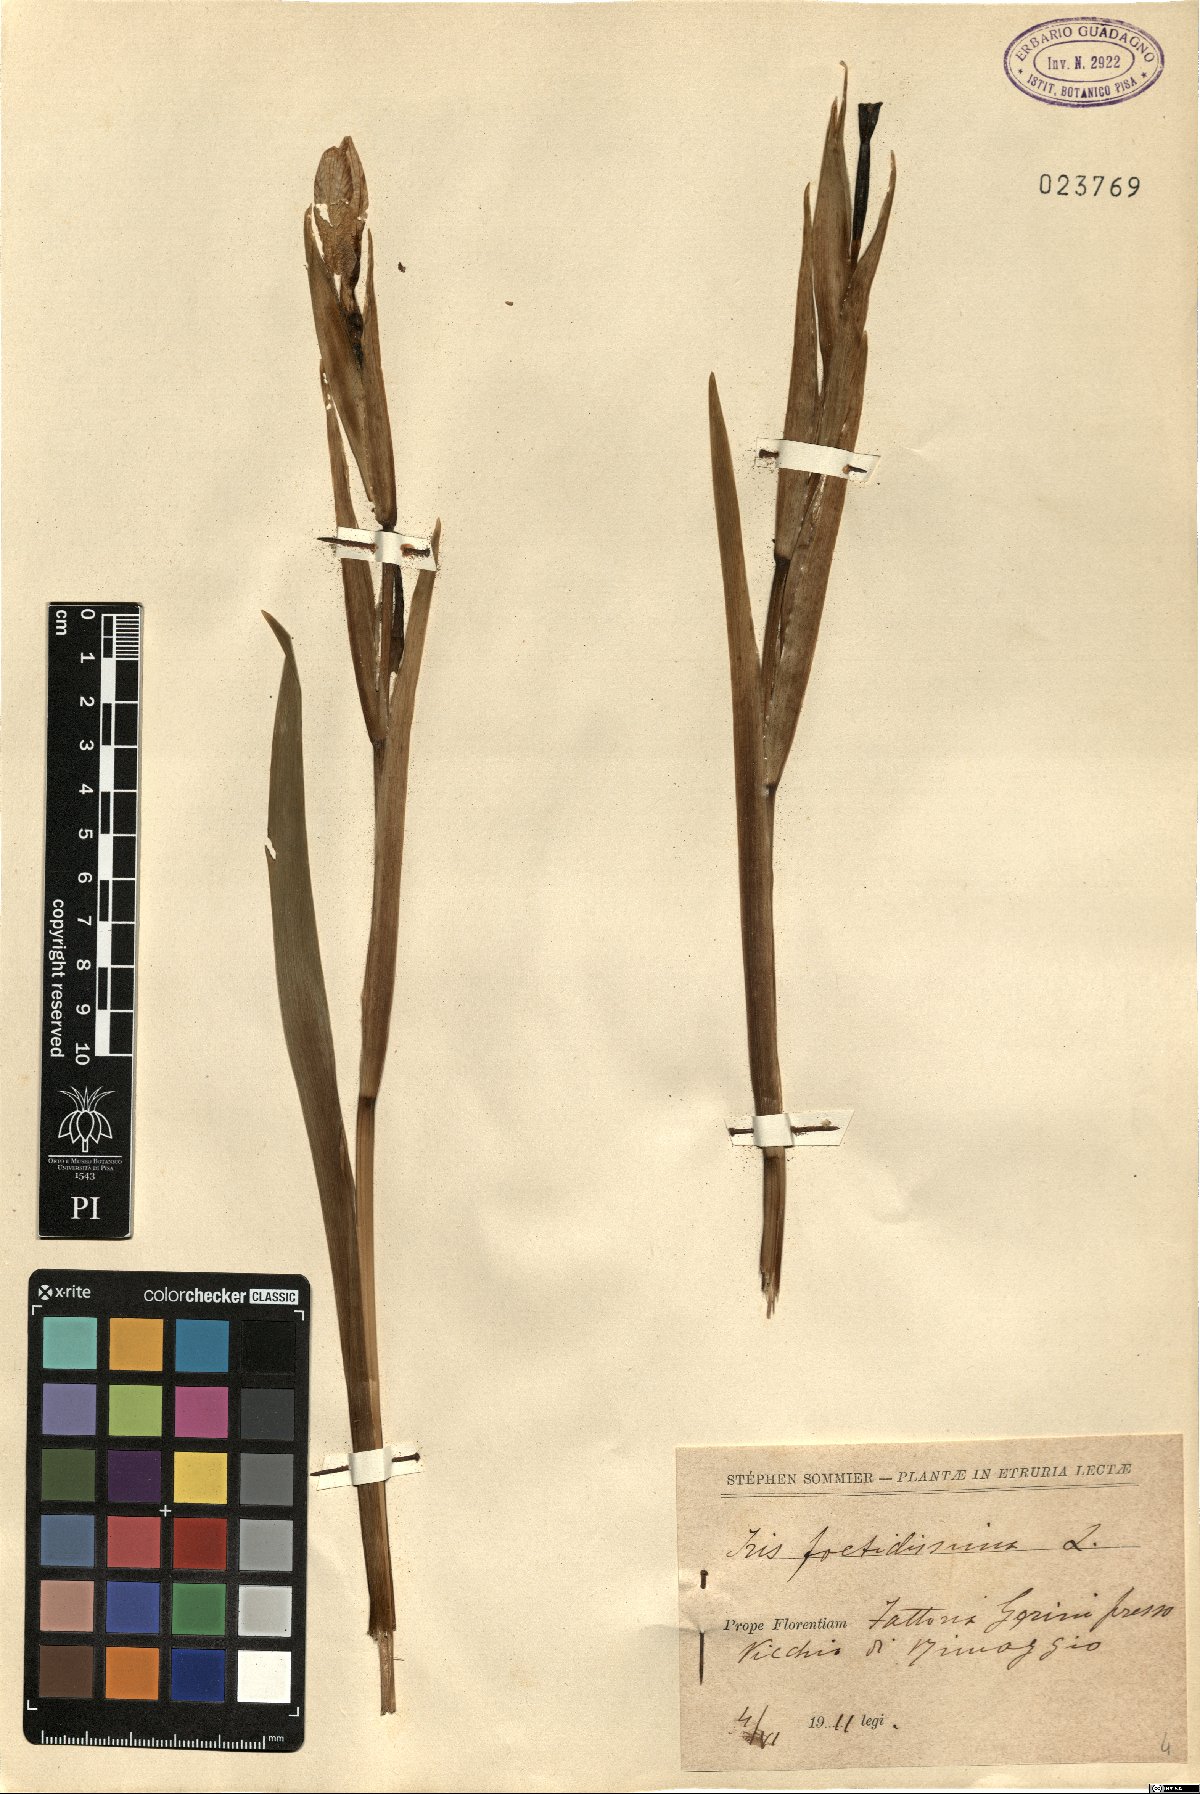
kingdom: Plantae
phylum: Tracheophyta
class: Liliopsida
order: Asparagales
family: Iridaceae
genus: Iris
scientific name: Iris foetidissima
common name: Stinking iris
